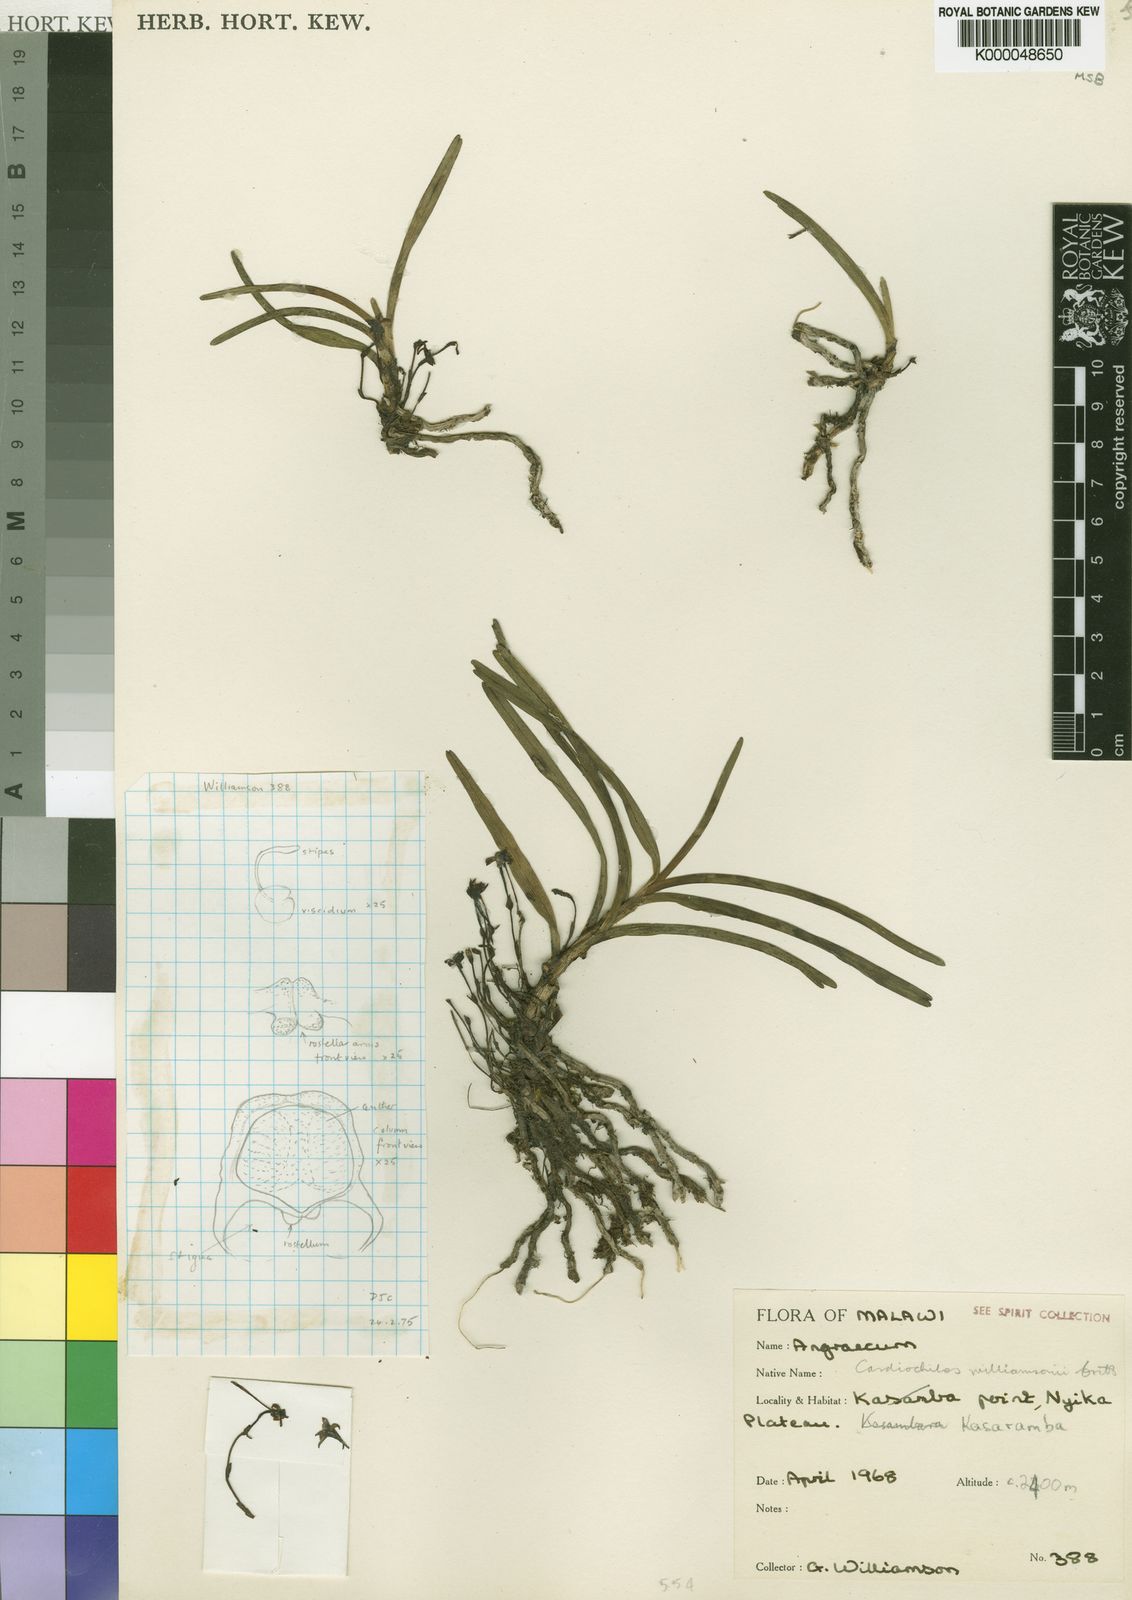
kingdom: Plantae
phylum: Tracheophyta
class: Liliopsida
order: Asparagales
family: Orchidaceae
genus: Cardiochilos
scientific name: Cardiochilos williamsonii
